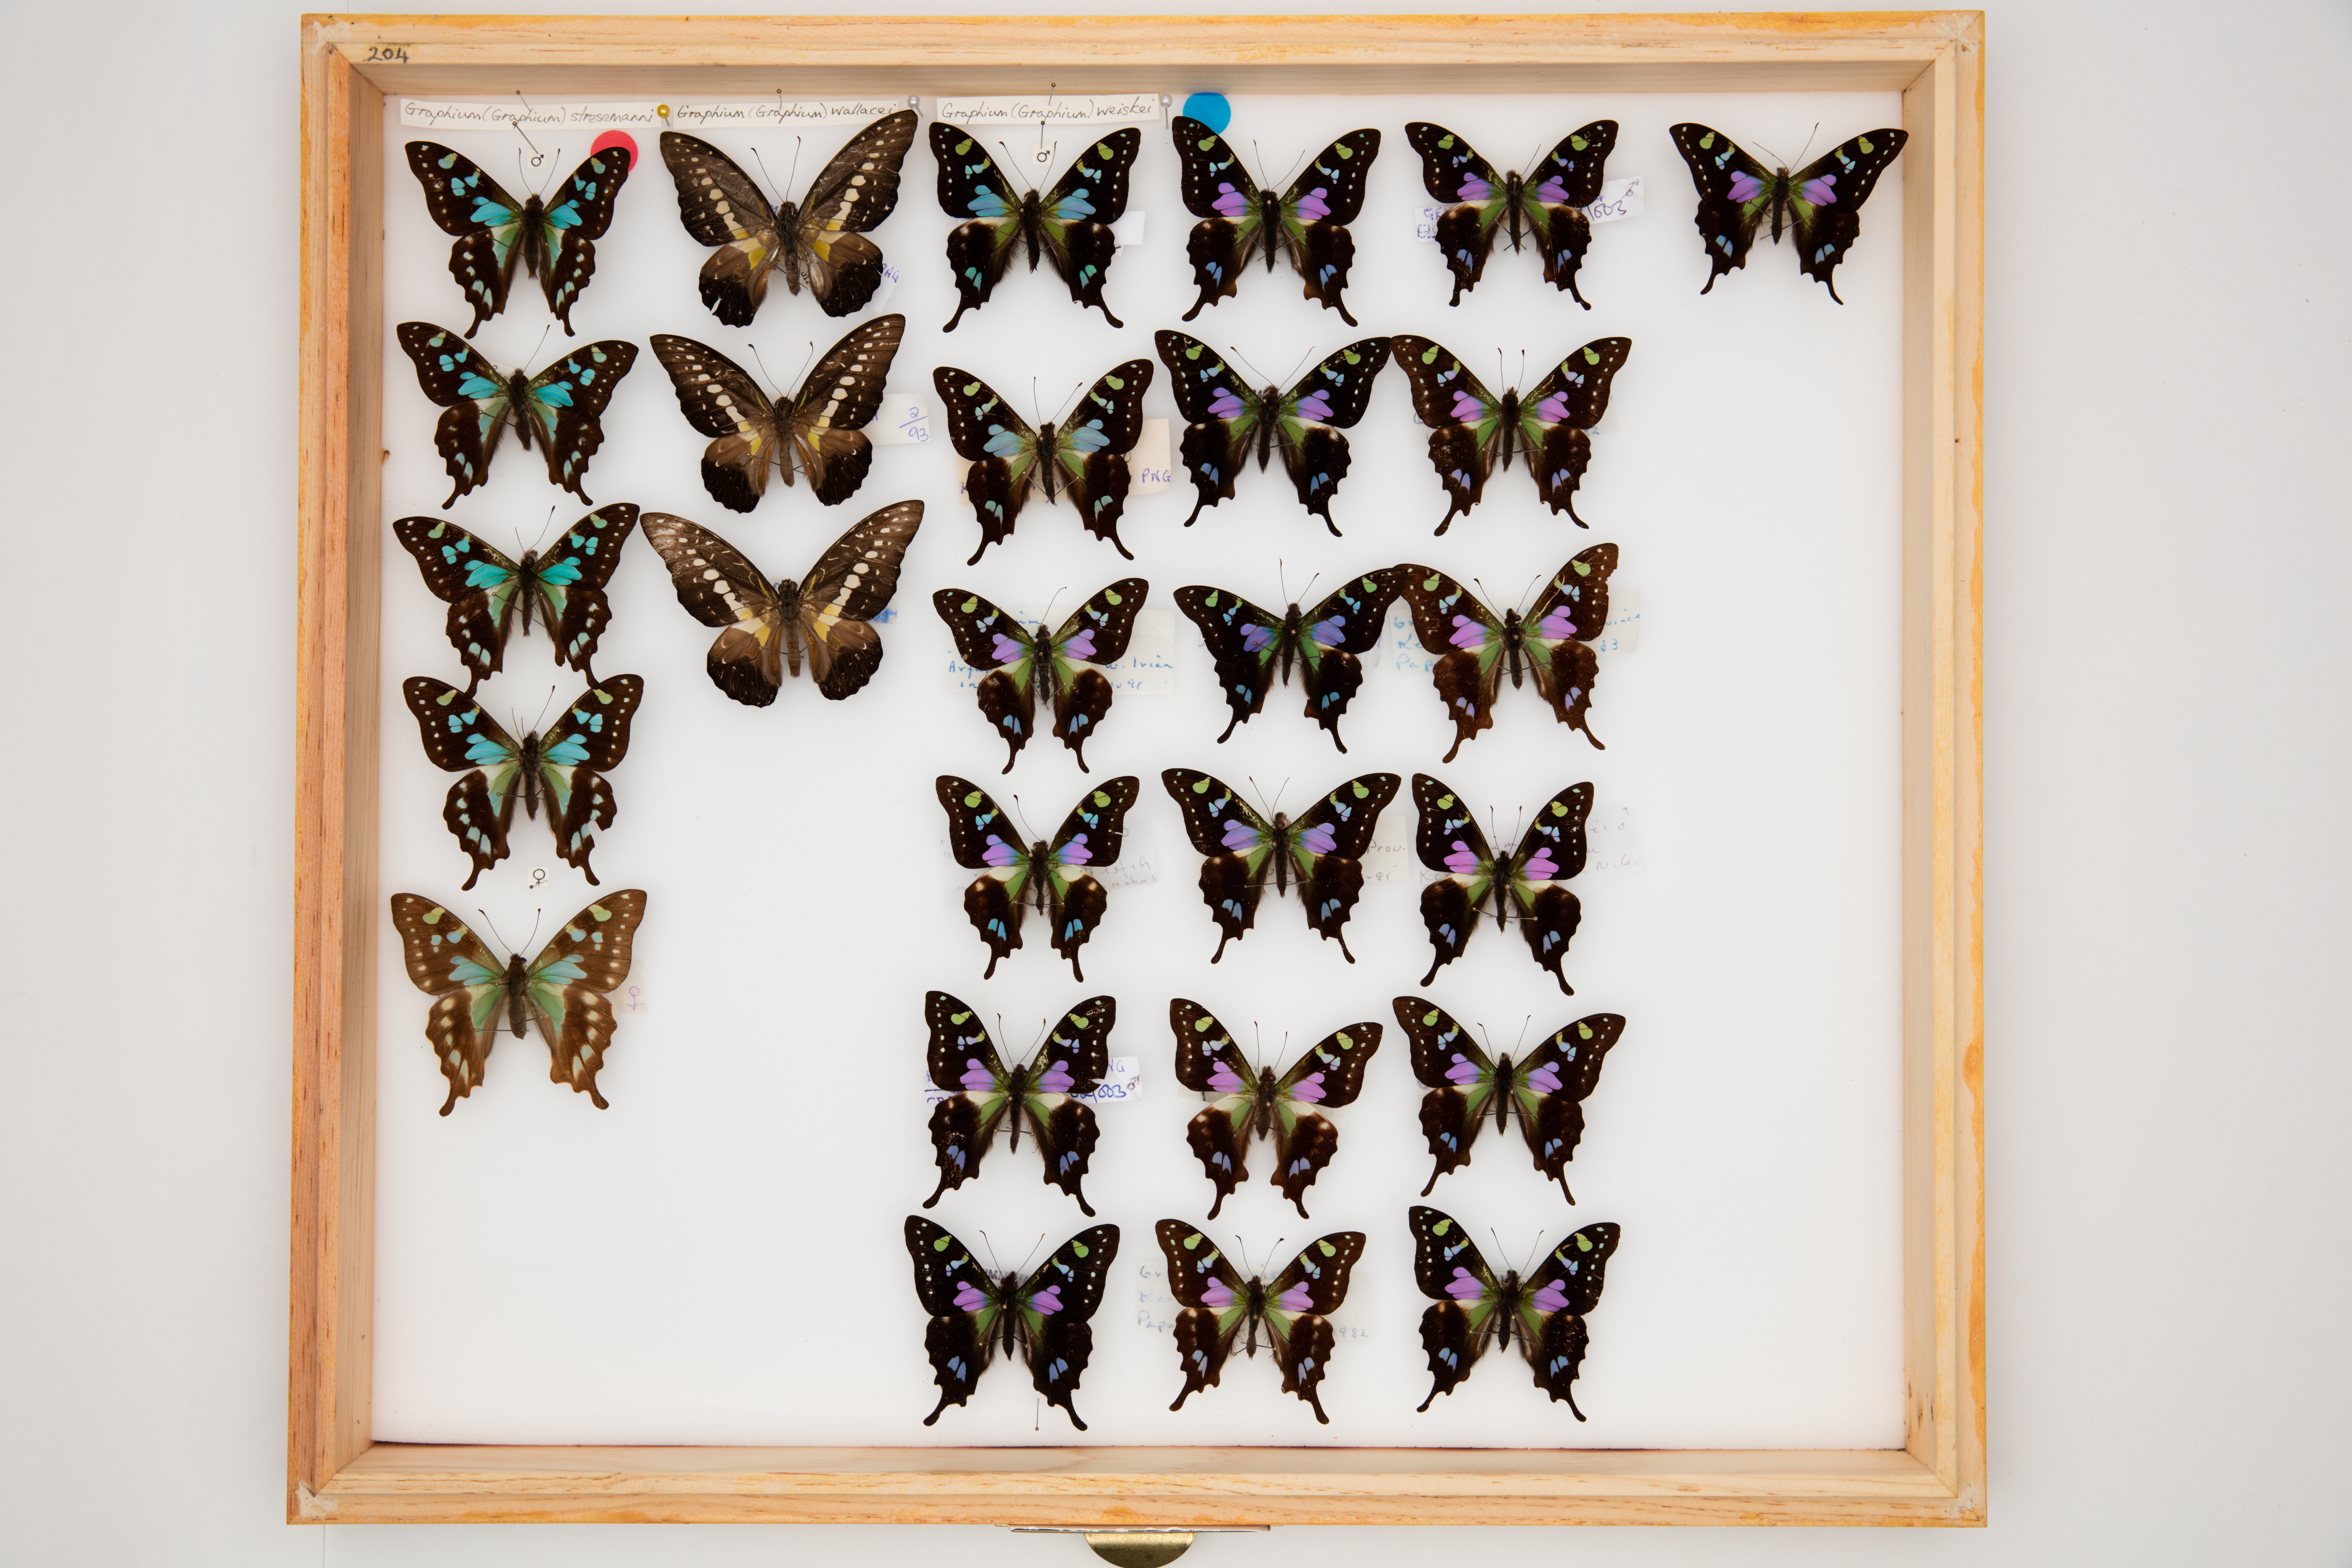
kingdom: Animalia
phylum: Arthropoda
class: Insecta
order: Lepidoptera
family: Papilionidae
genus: Graphium
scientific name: Graphium stresemanni
